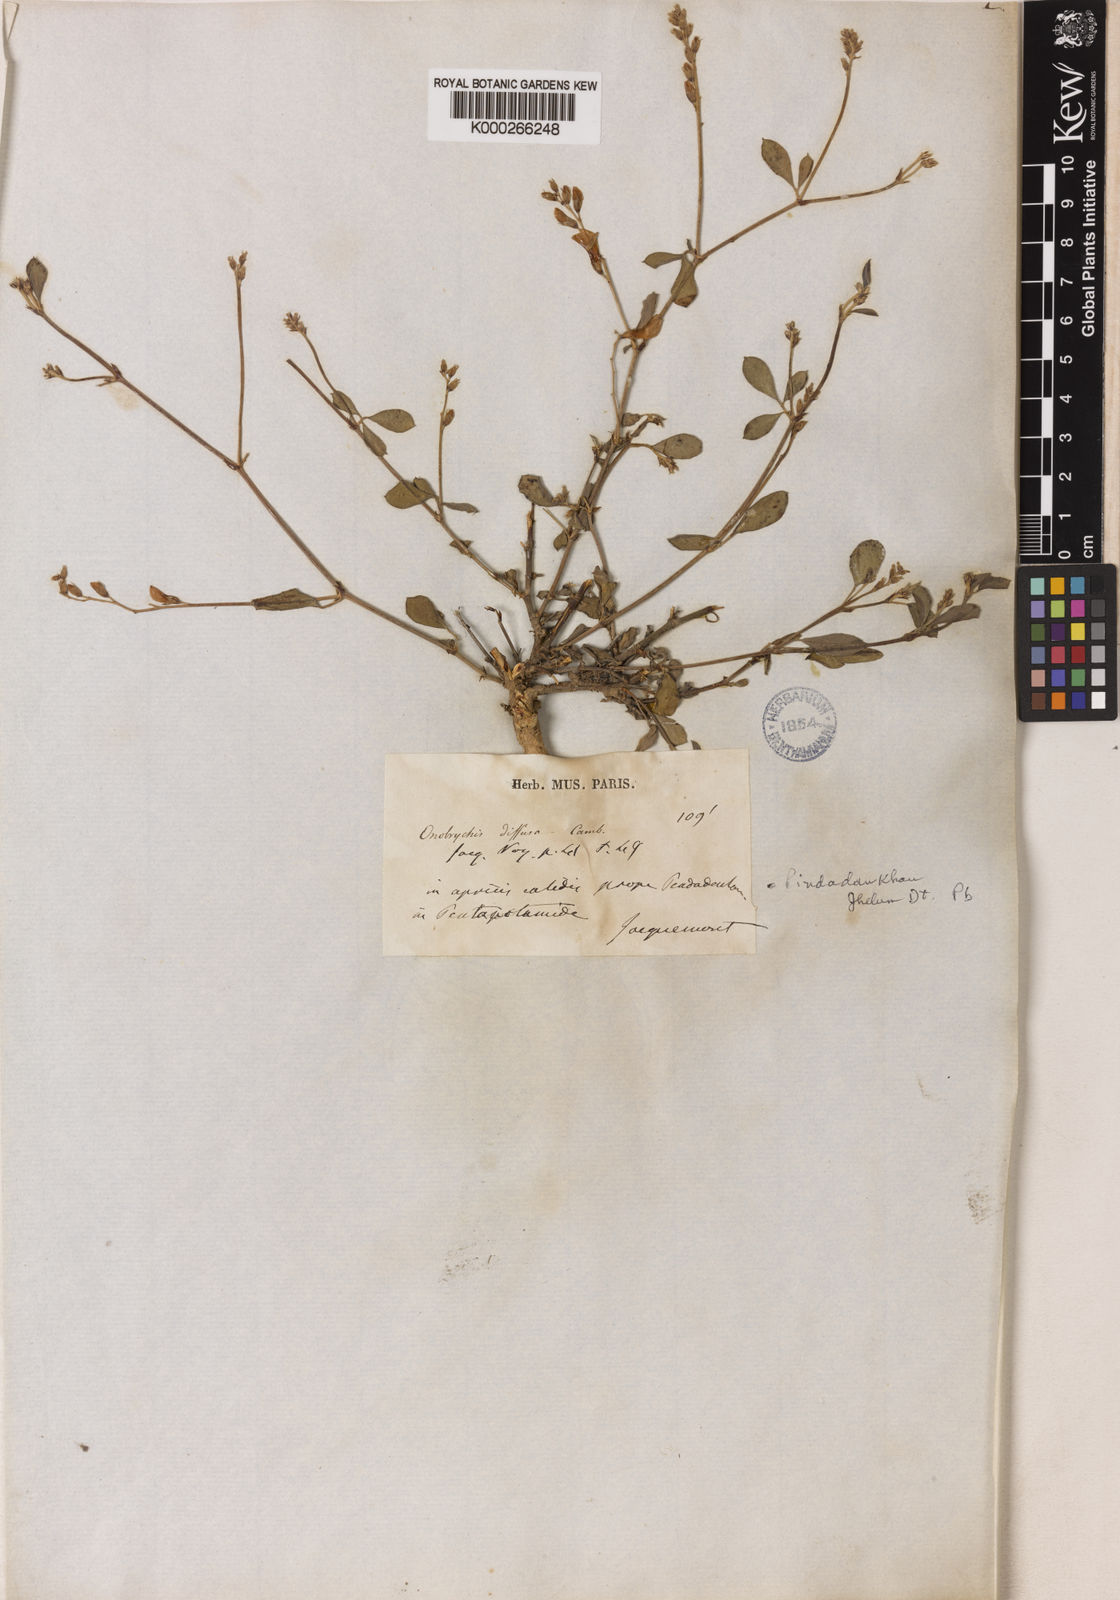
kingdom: Plantae
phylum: Tracheophyta
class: Magnoliopsida
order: Fabales
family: Fabaceae
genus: Taverniera
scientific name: Taverniera nummularia
